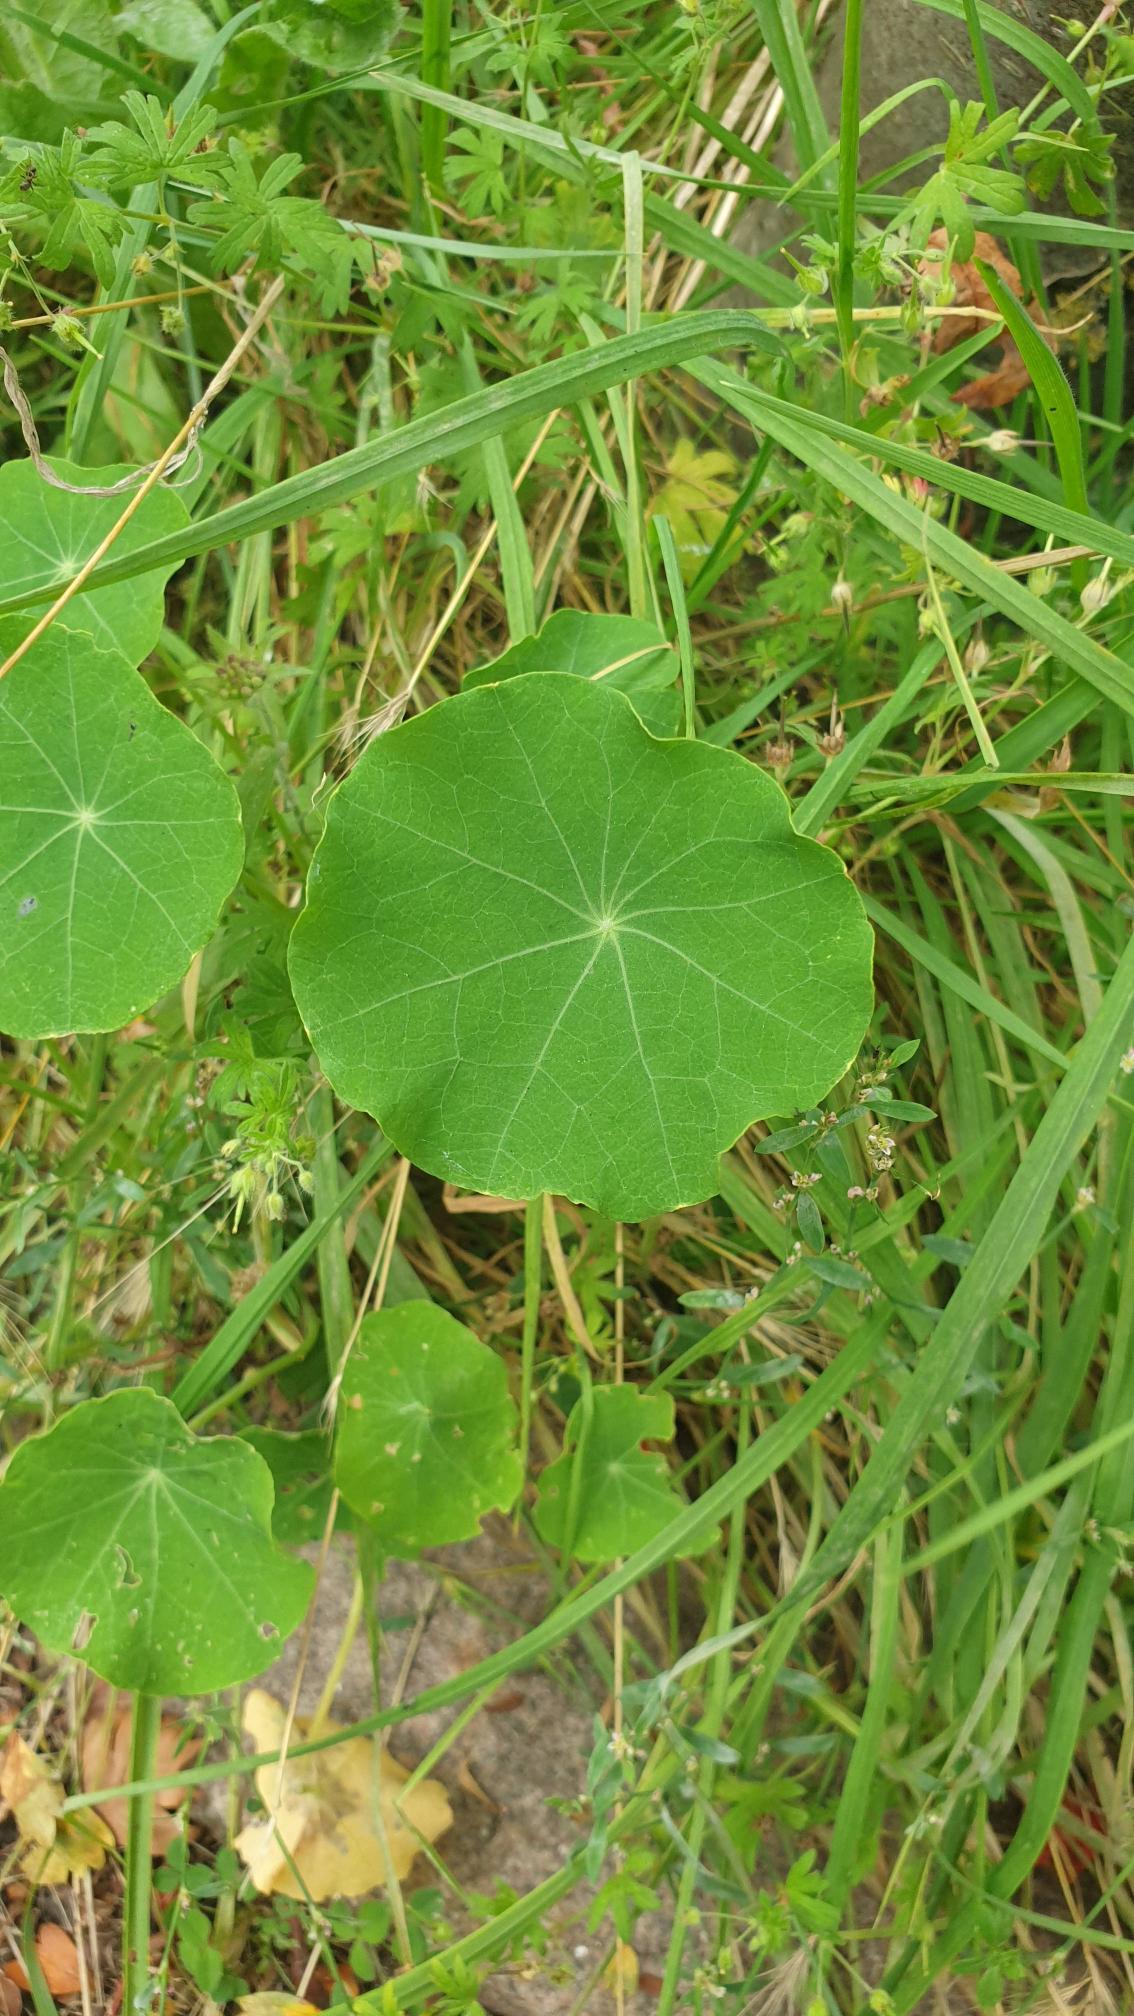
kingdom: Plantae
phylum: Tracheophyta
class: Magnoliopsida
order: Brassicales
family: Tropaeolaceae
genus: Tropaeolum
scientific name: Tropaeolum majus
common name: Blomsterkarse
